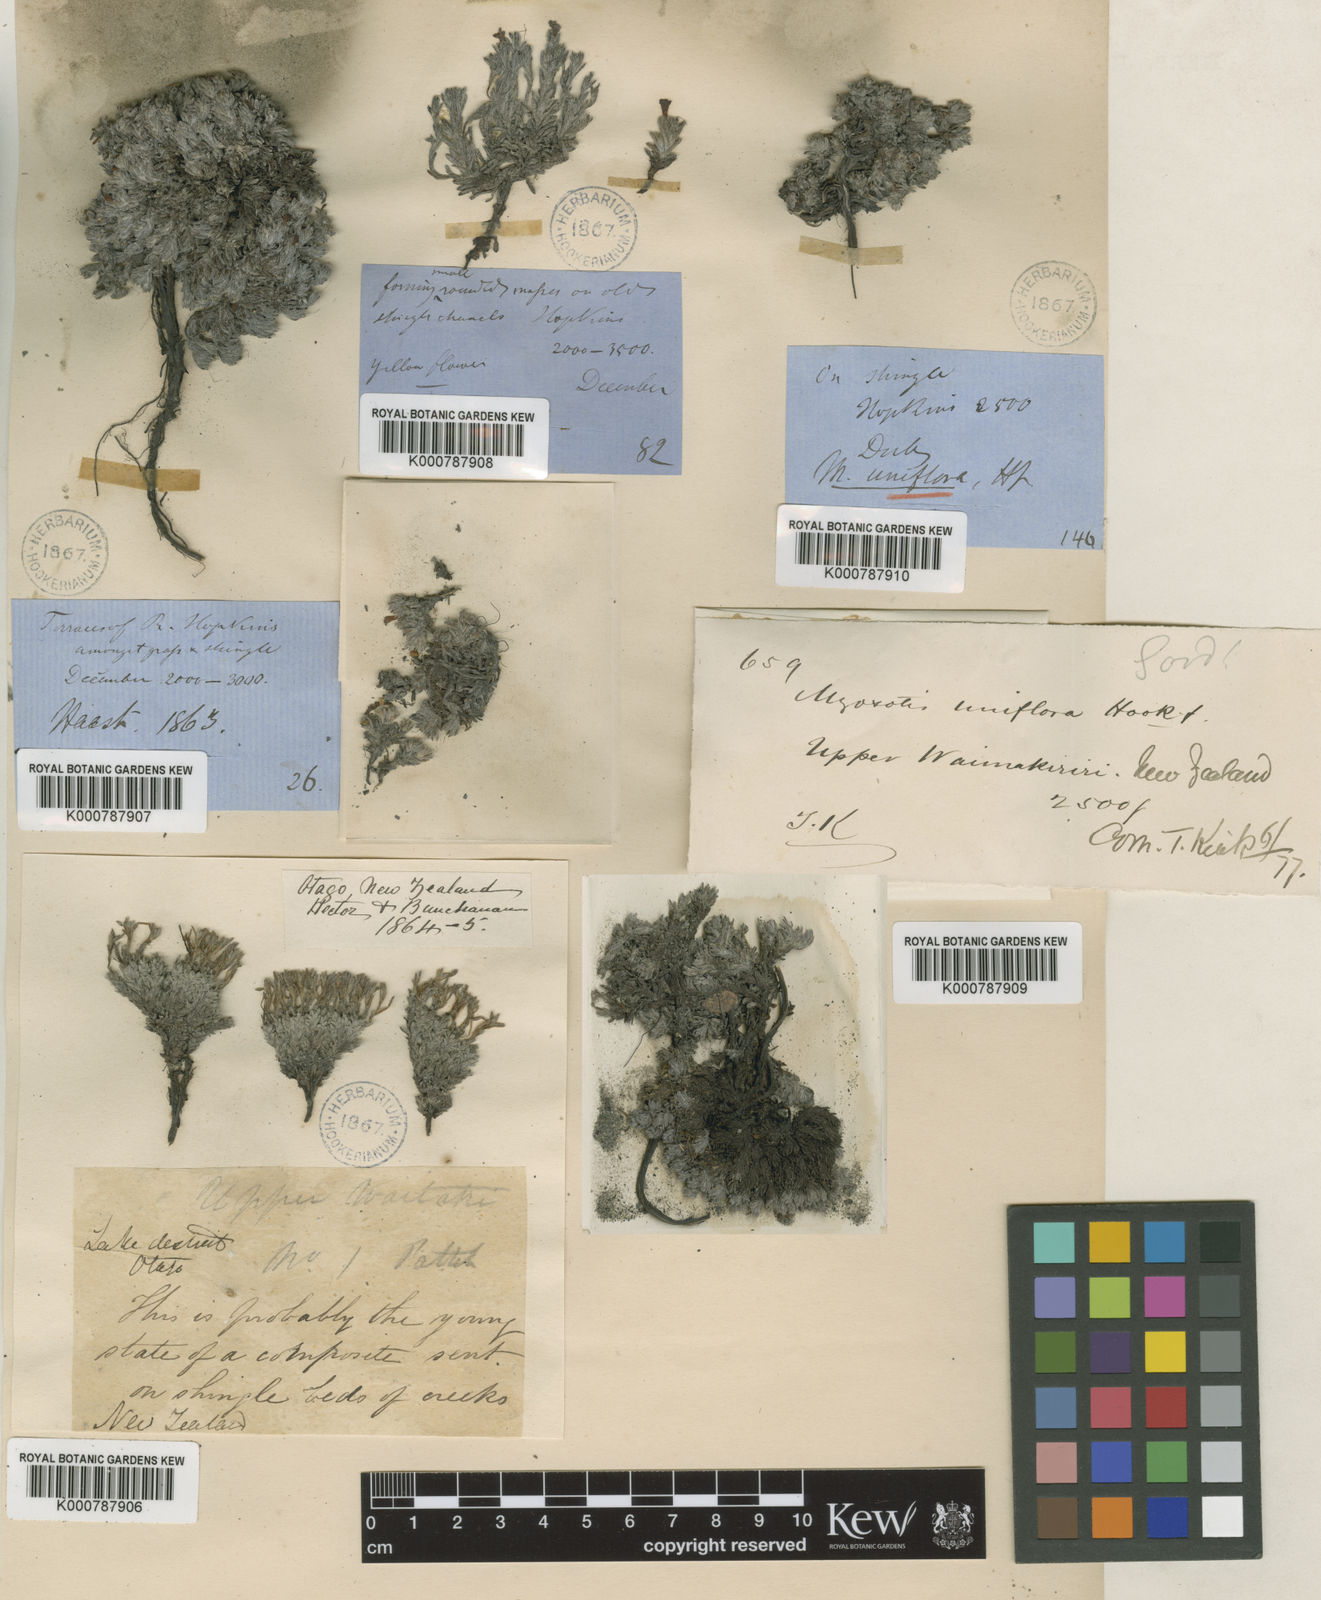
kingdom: Plantae
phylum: Tracheophyta
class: Magnoliopsida
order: Boraginales
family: Boraginaceae
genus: Myosotis
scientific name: Myosotis uniflora
